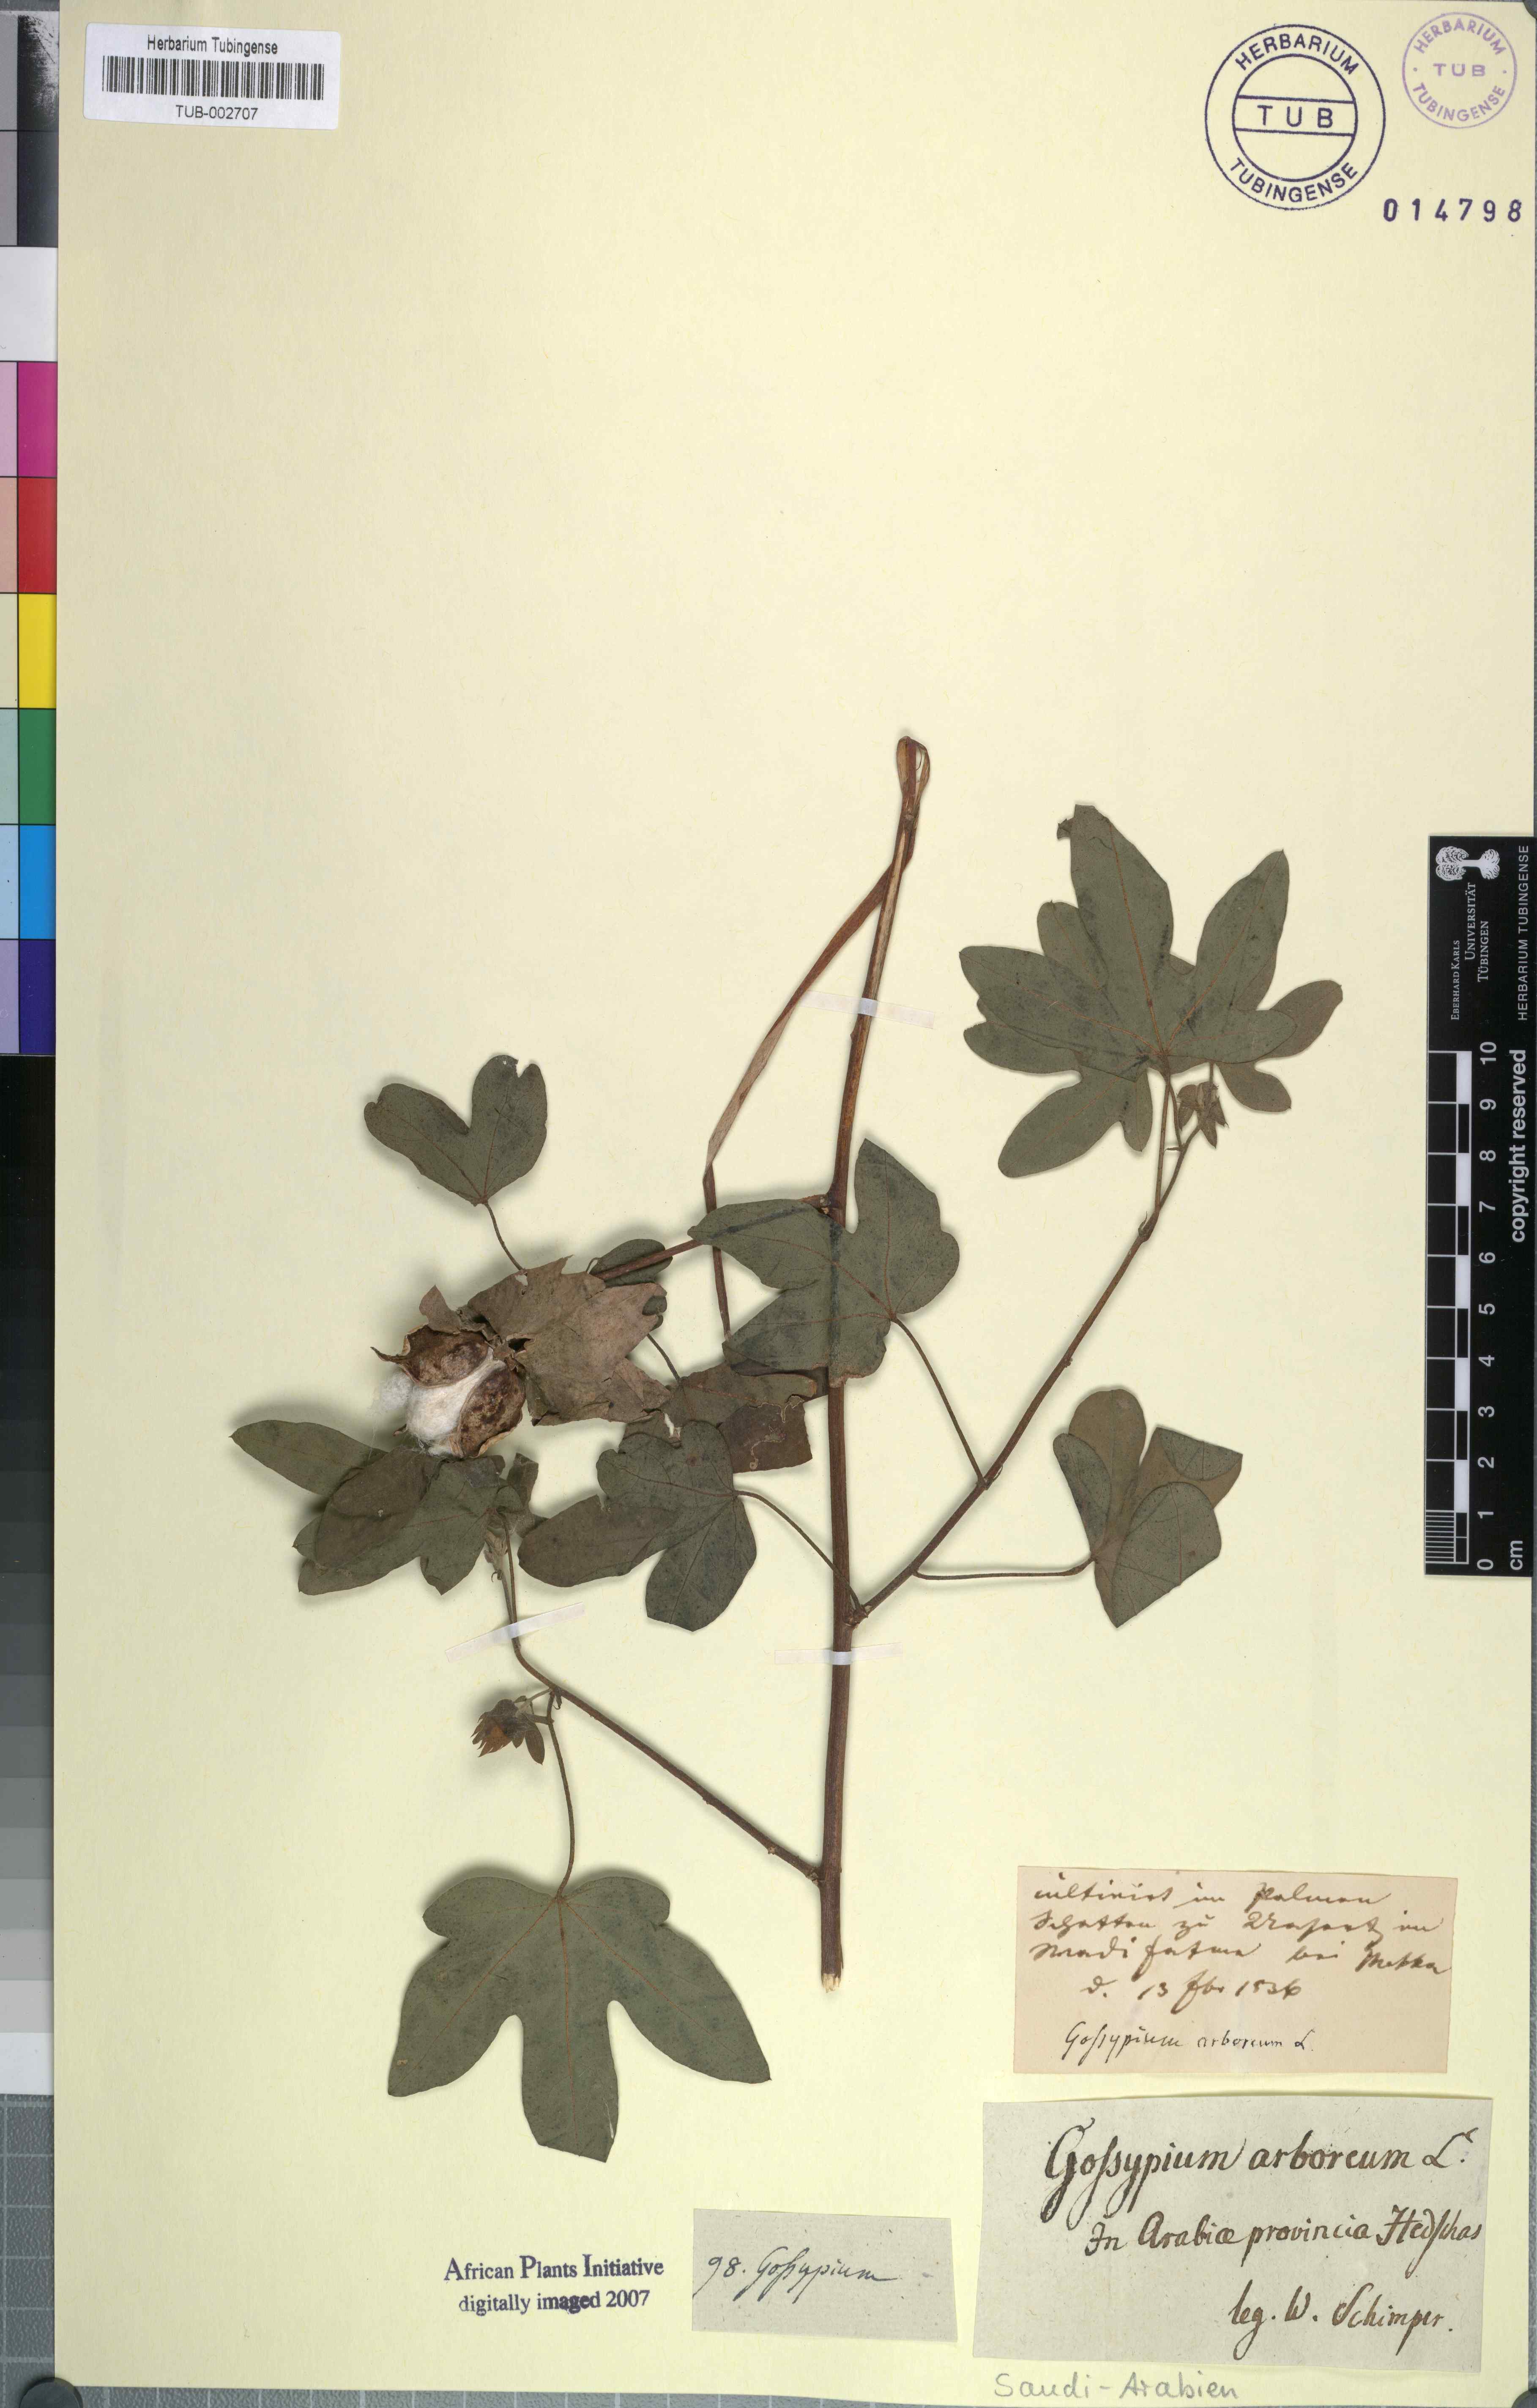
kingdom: Plantae
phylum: Tracheophyta
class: Magnoliopsida
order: Malvales
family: Malvaceae
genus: Gossypium
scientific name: Gossypium arboreum
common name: Tree cotton
